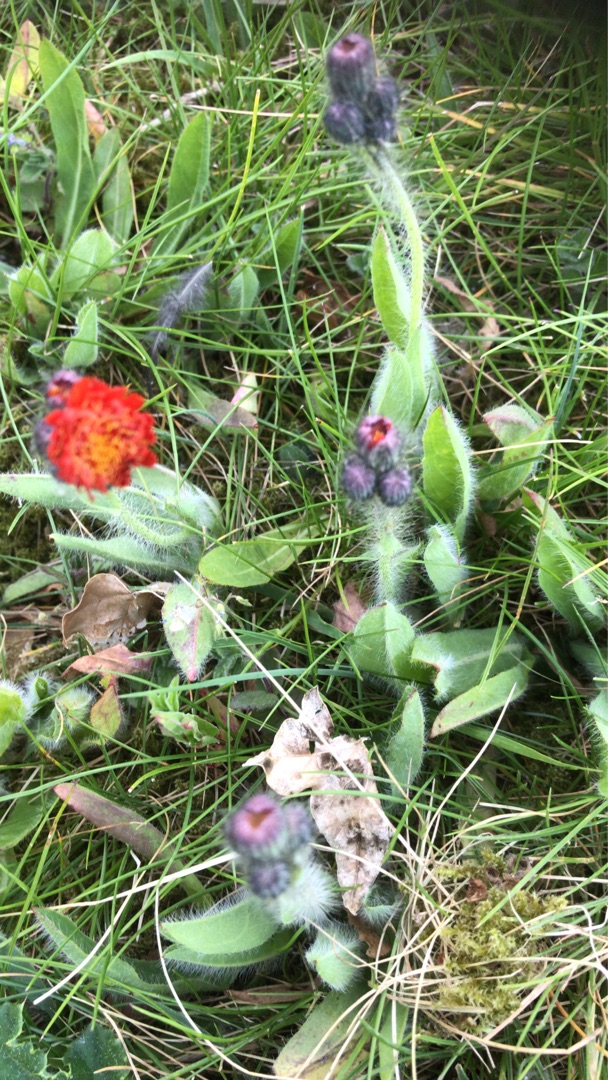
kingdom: Plantae
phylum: Tracheophyta
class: Magnoliopsida
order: Asterales
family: Asteraceae
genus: Pilosella
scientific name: Pilosella aurantiaca
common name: Pomerans-høgeurt
